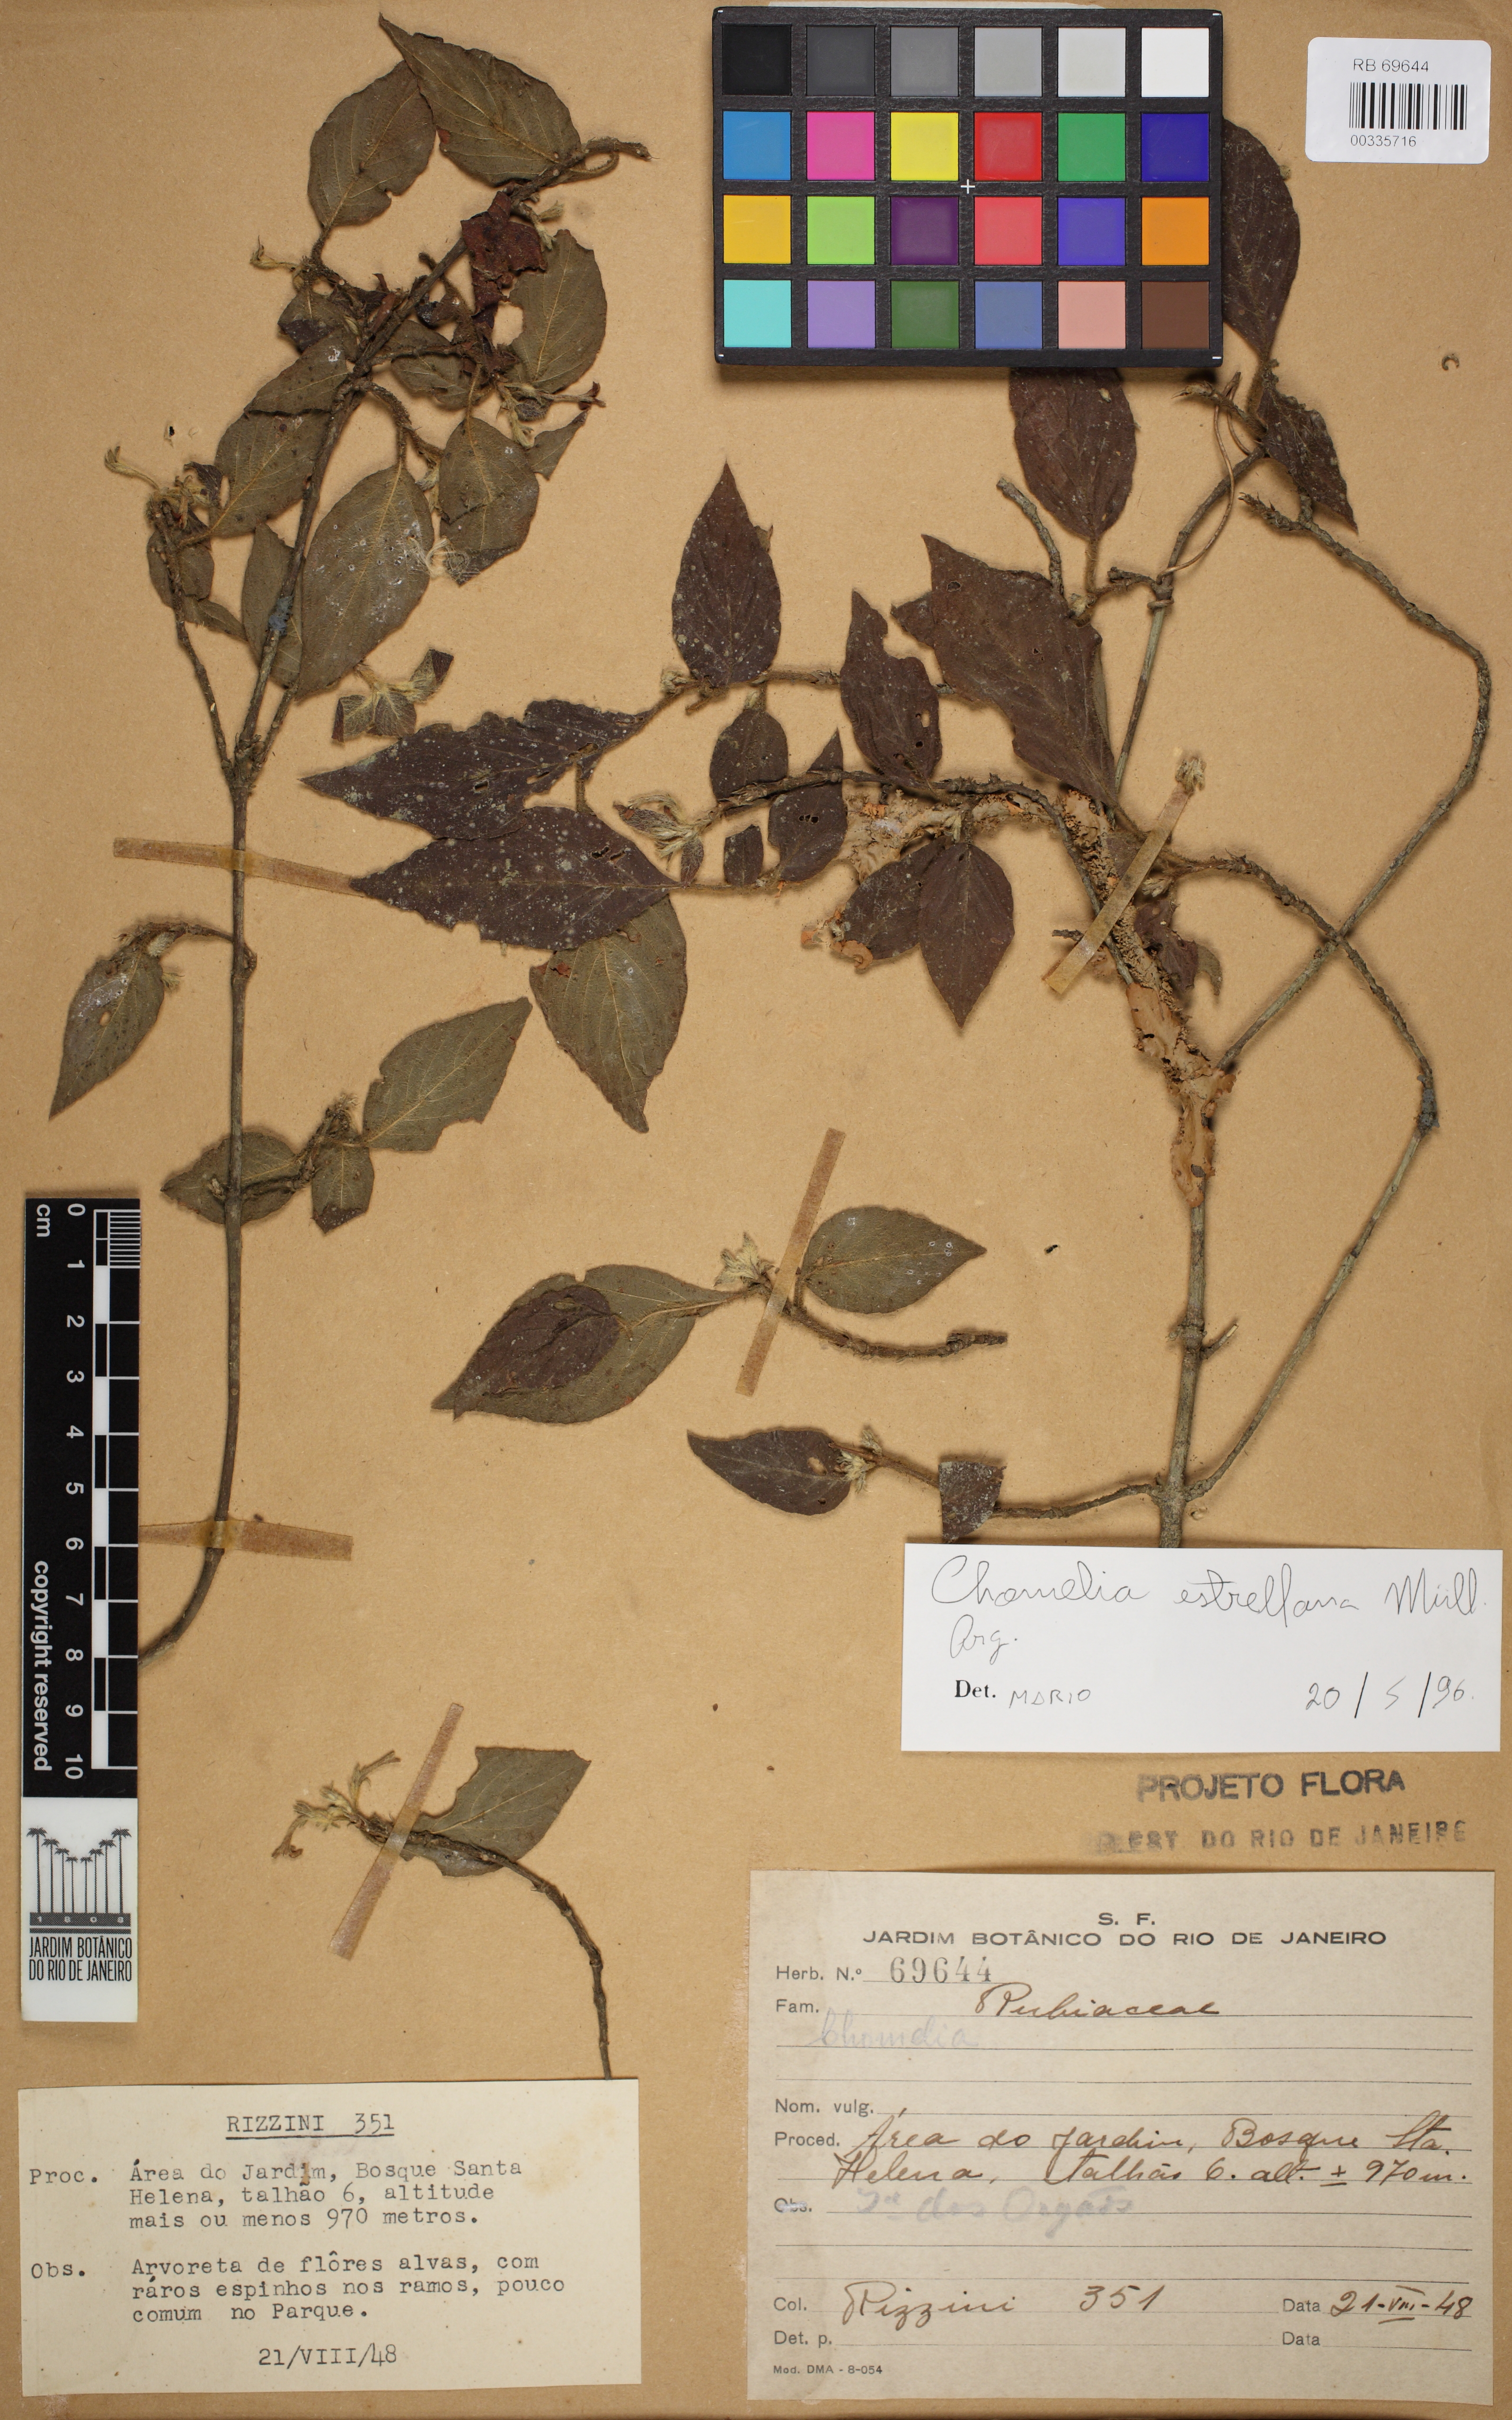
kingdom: Plantae
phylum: Tracheophyta
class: Magnoliopsida
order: Gentianales
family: Rubiaceae
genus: Chomelia
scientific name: Chomelia estrellana
